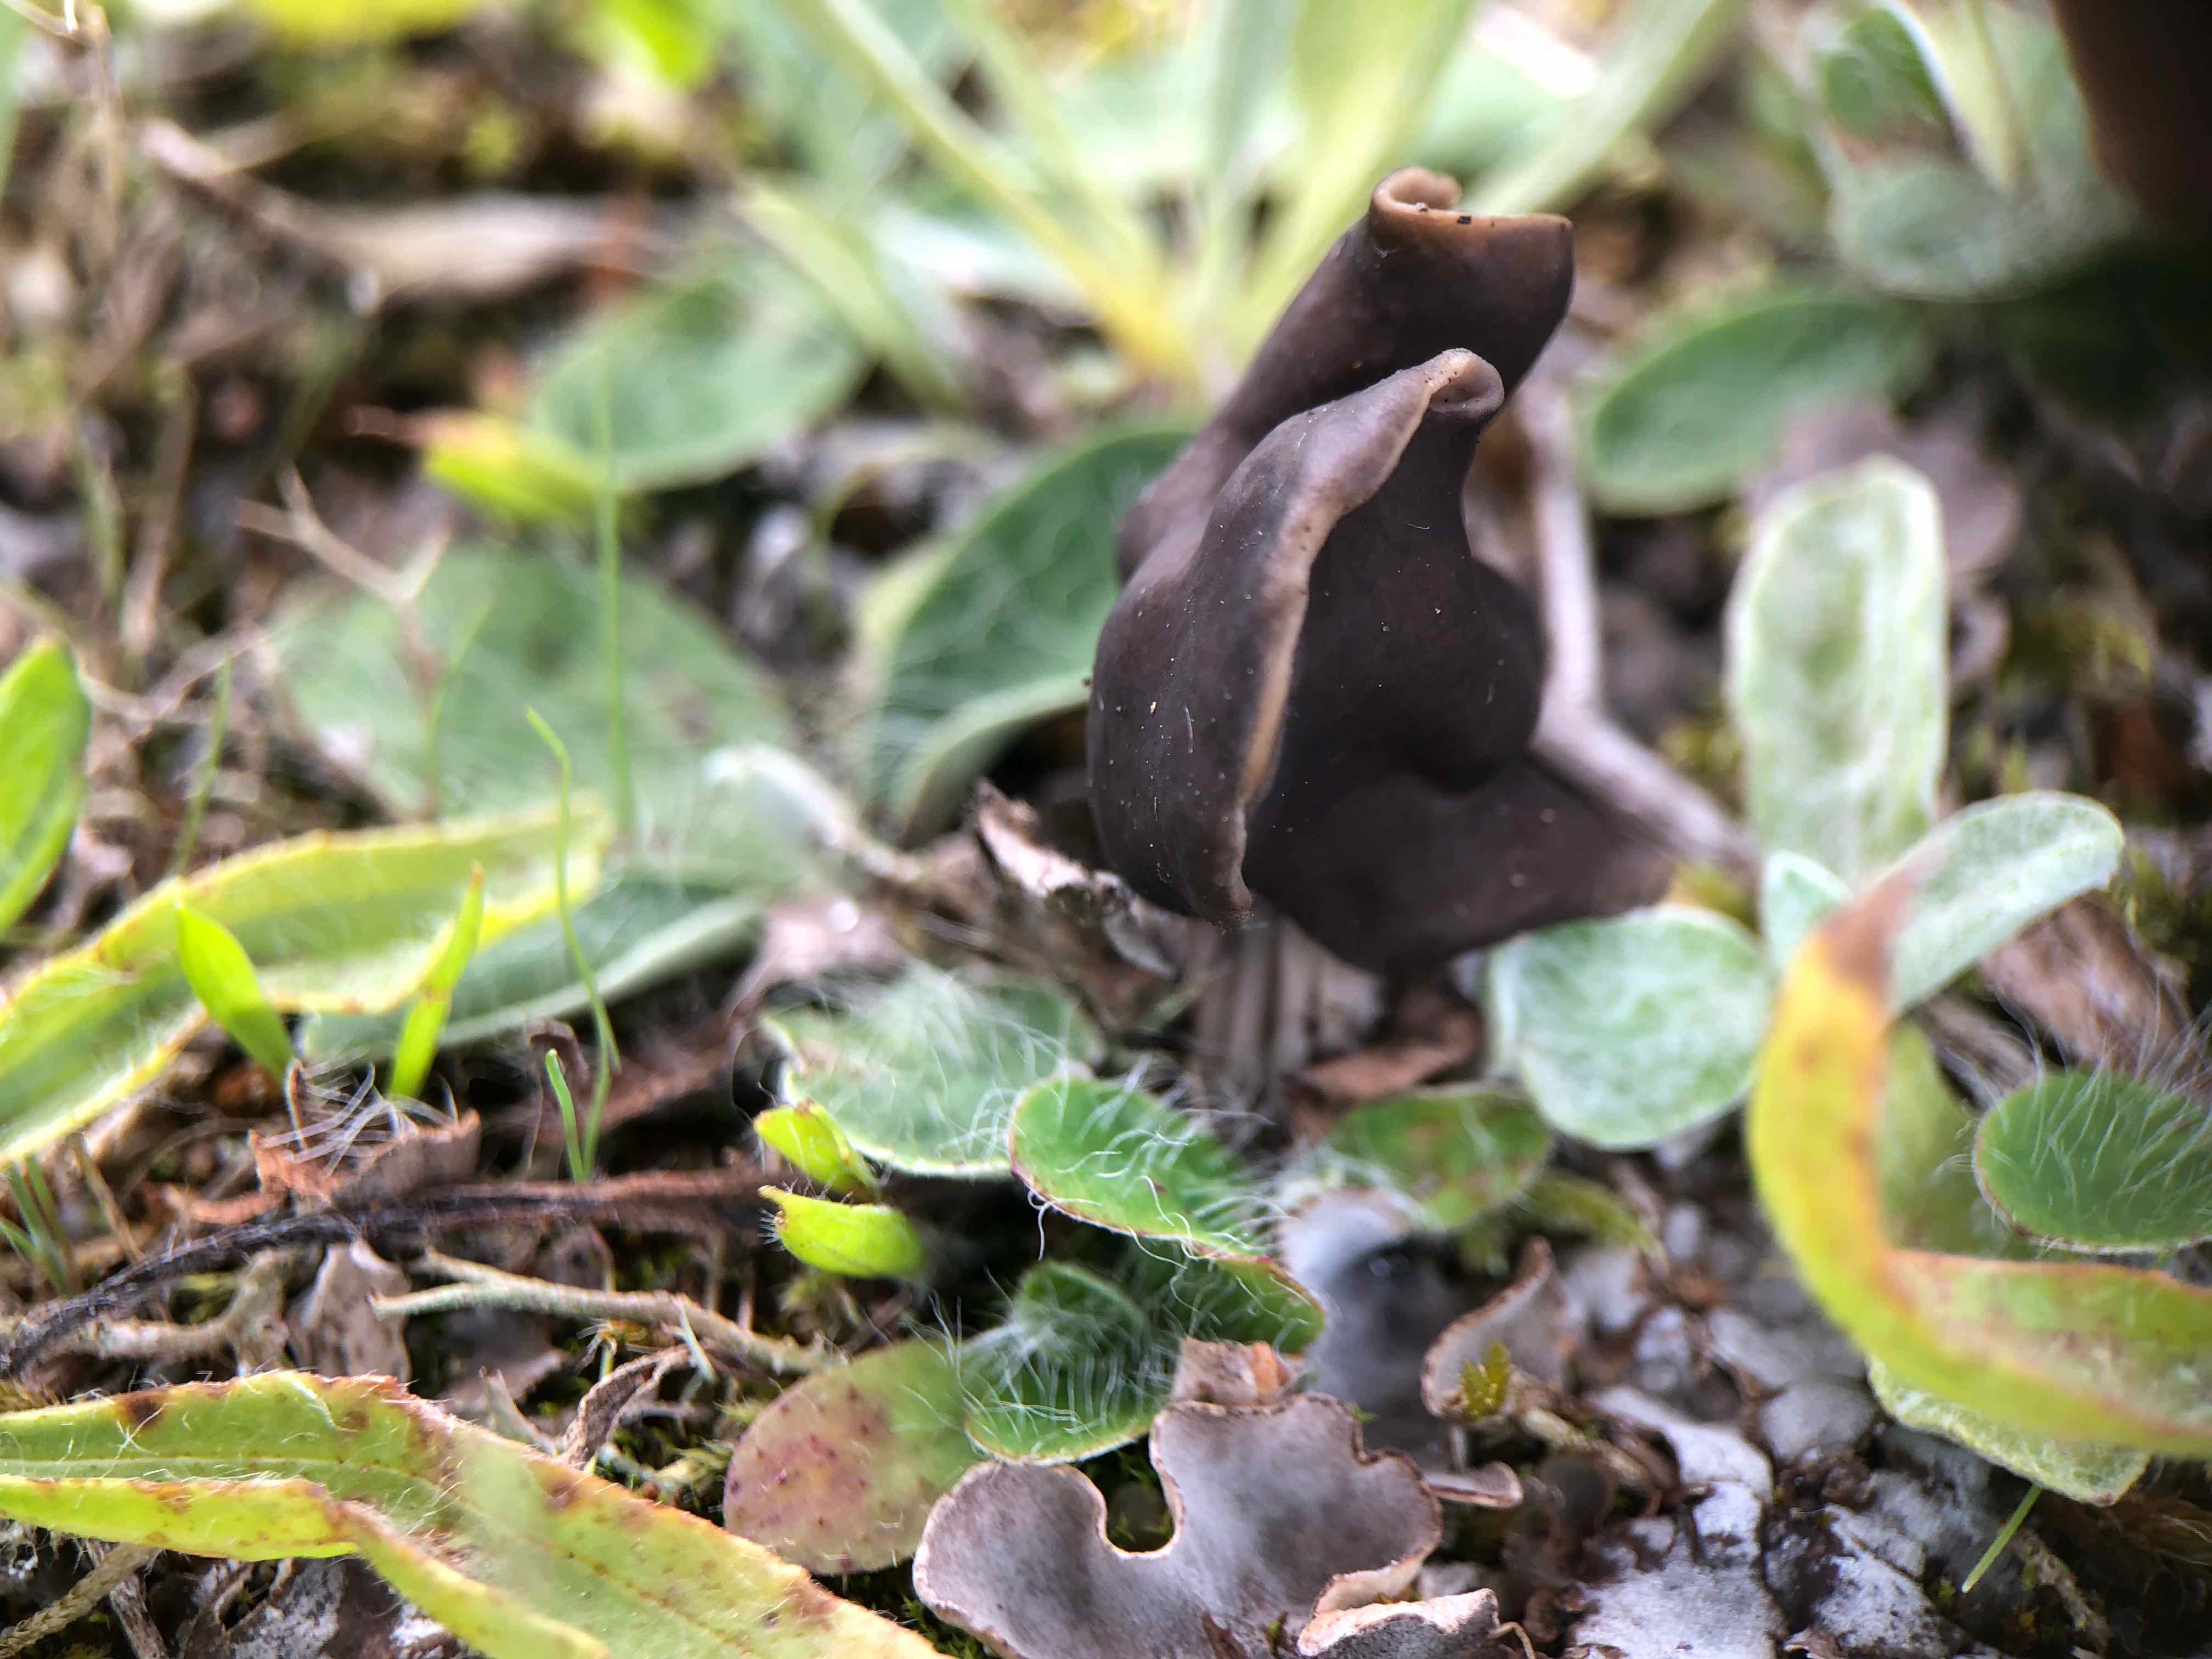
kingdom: Fungi
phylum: Ascomycota
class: Pezizomycetes
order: Pezizales
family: Helvellaceae
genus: Helvella
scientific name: Helvella lacunosa
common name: grubet foldhat
